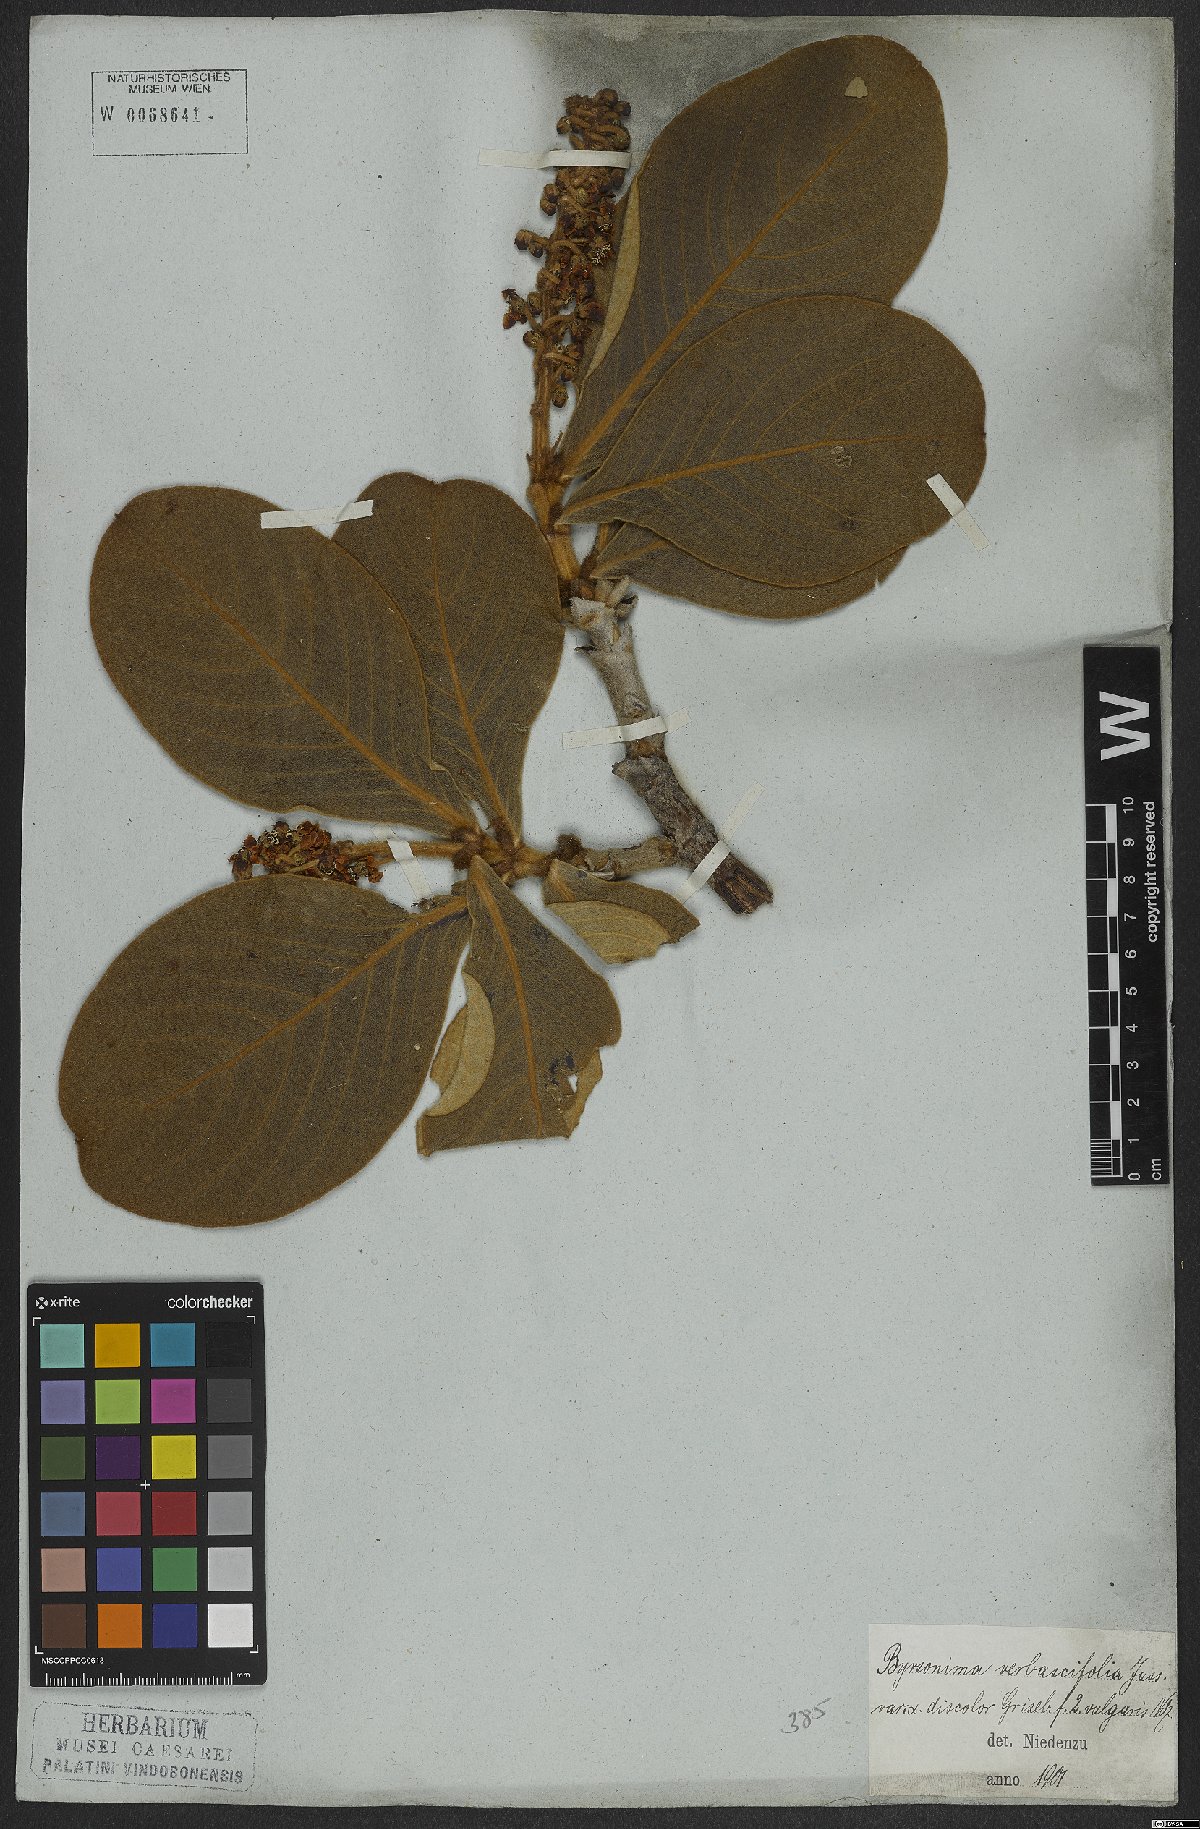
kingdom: Plantae
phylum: Tracheophyta
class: Magnoliopsida
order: Malpighiales
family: Malpighiaceae
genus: Byrsonima
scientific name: Byrsonima verbascifolia
